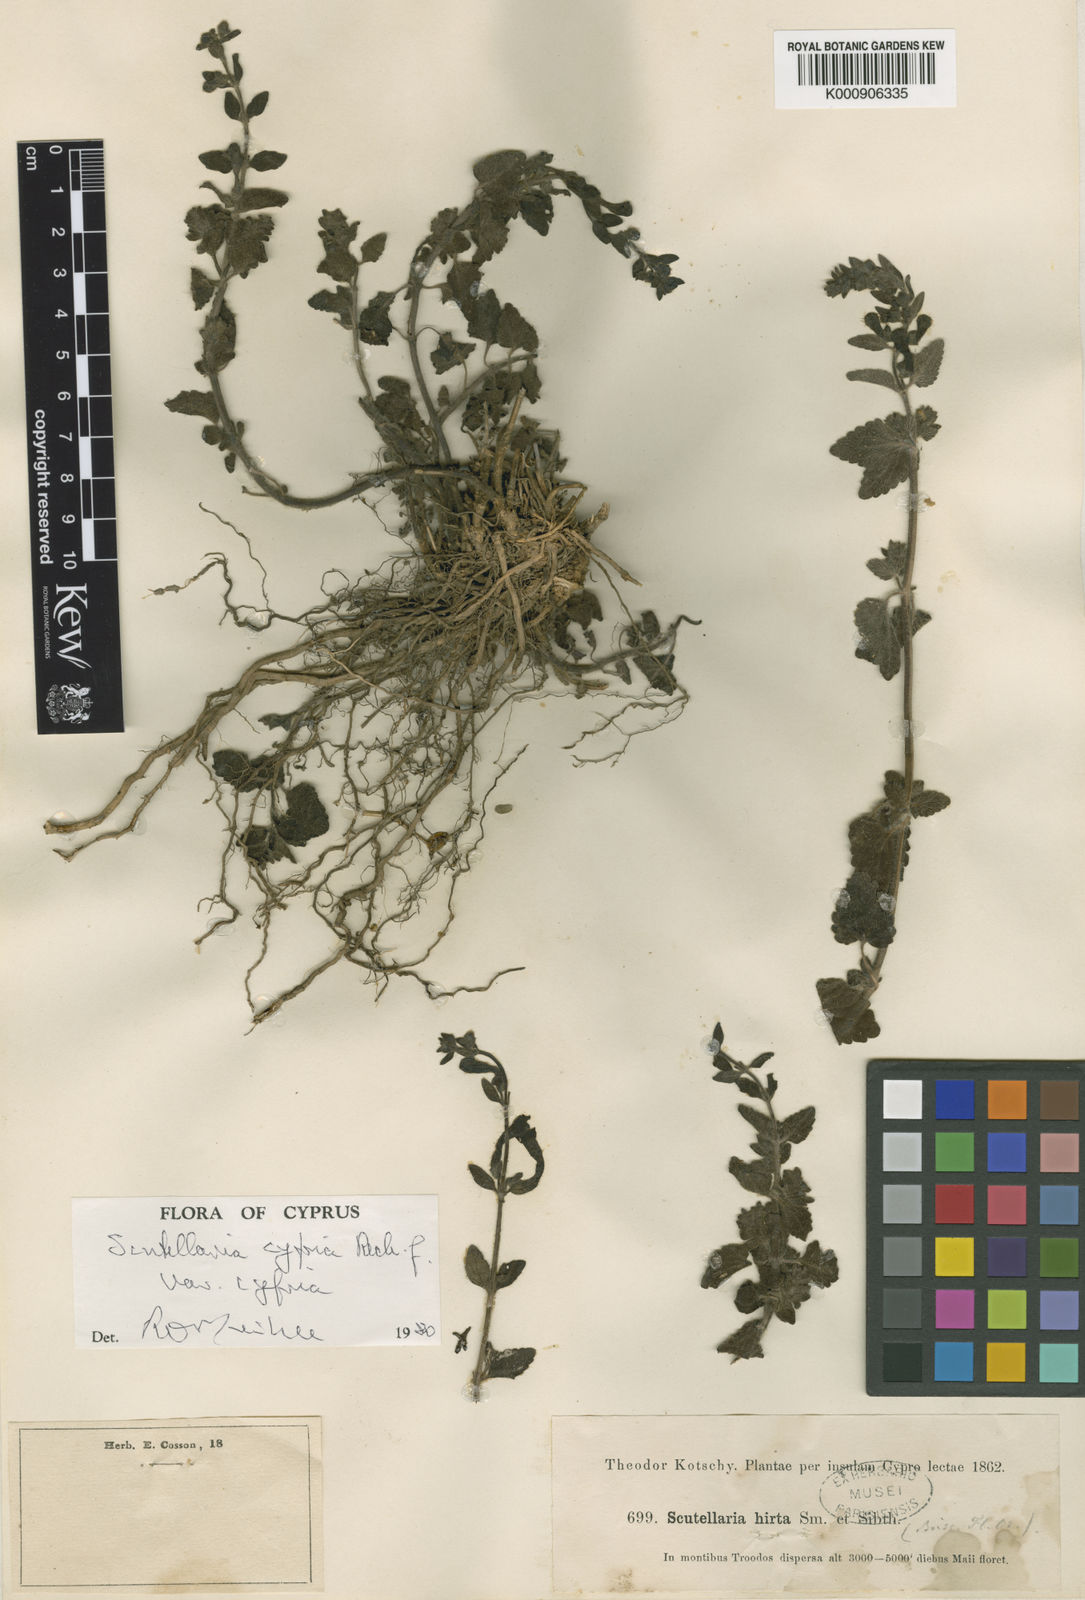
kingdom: Plantae
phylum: Tracheophyta
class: Magnoliopsida
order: Lamiales
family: Lamiaceae
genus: Scutellaria
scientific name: Scutellaria
